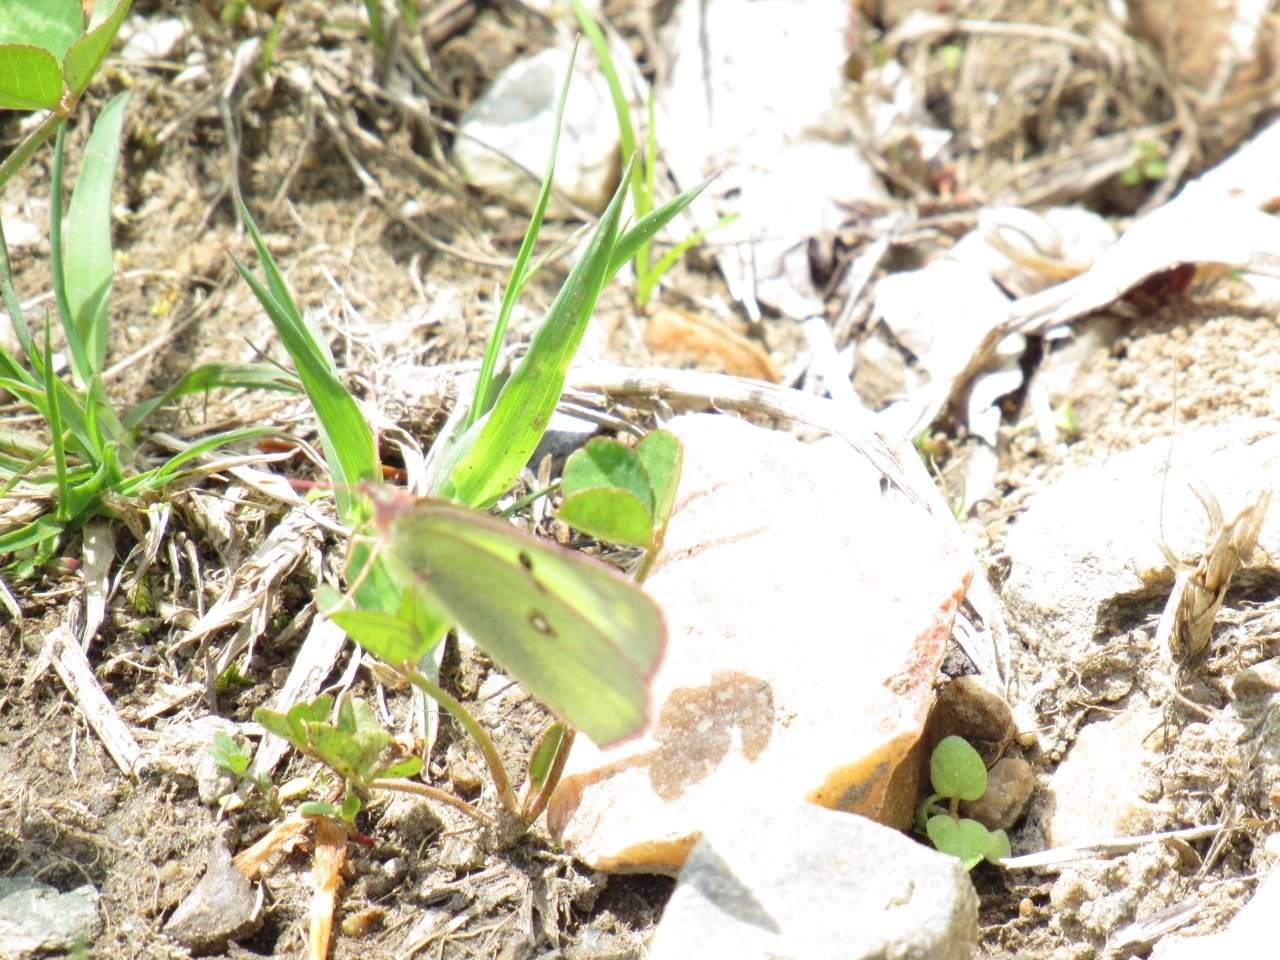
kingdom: Animalia
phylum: Arthropoda
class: Insecta
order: Lepidoptera
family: Pieridae
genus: Colias
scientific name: Colias philodice
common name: Clouded Sulphur
